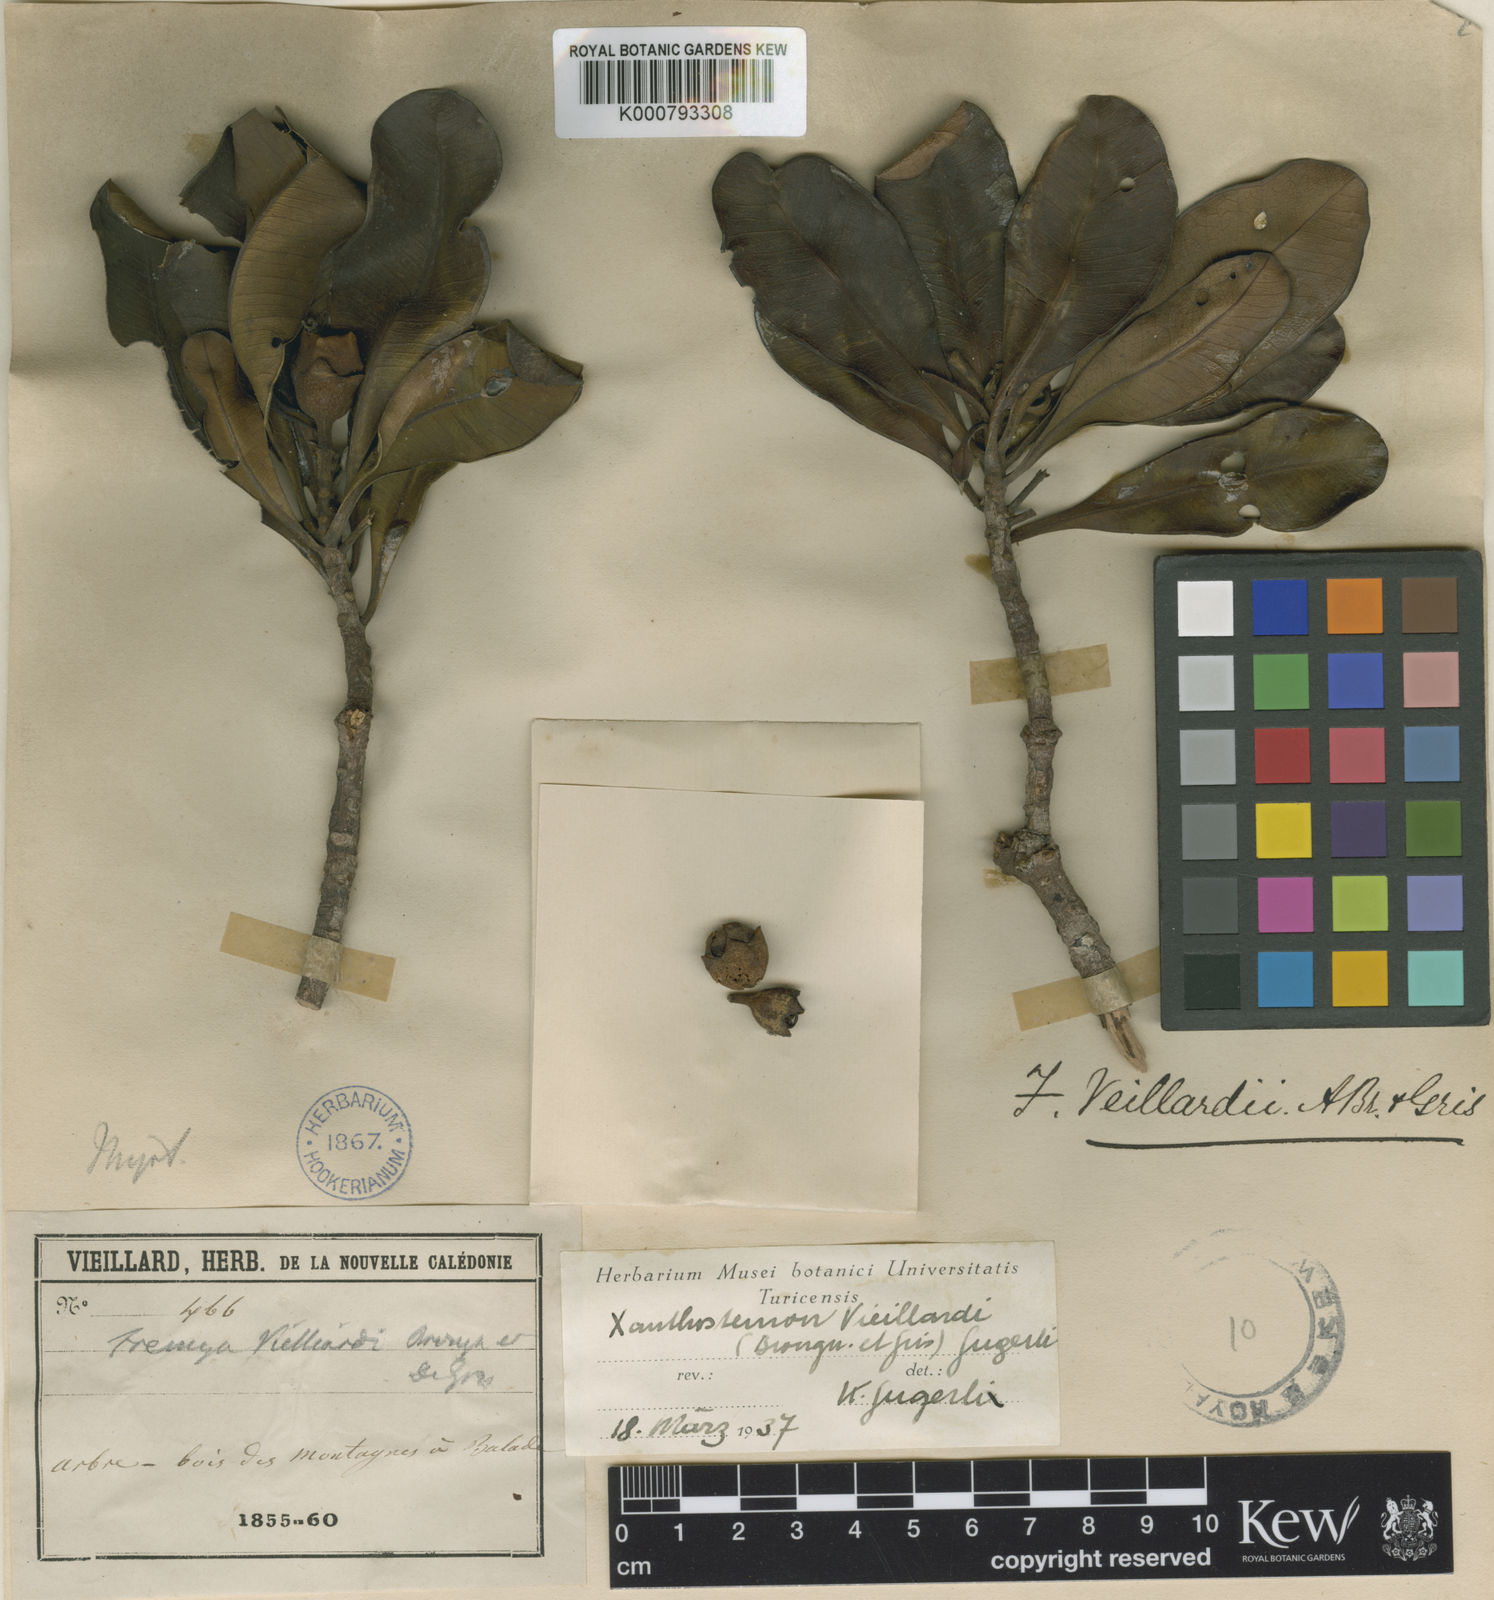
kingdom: Plantae
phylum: Tracheophyta
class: Magnoliopsida
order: Myrtales
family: Myrtaceae
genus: Xanthostemon
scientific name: Xanthostemon
